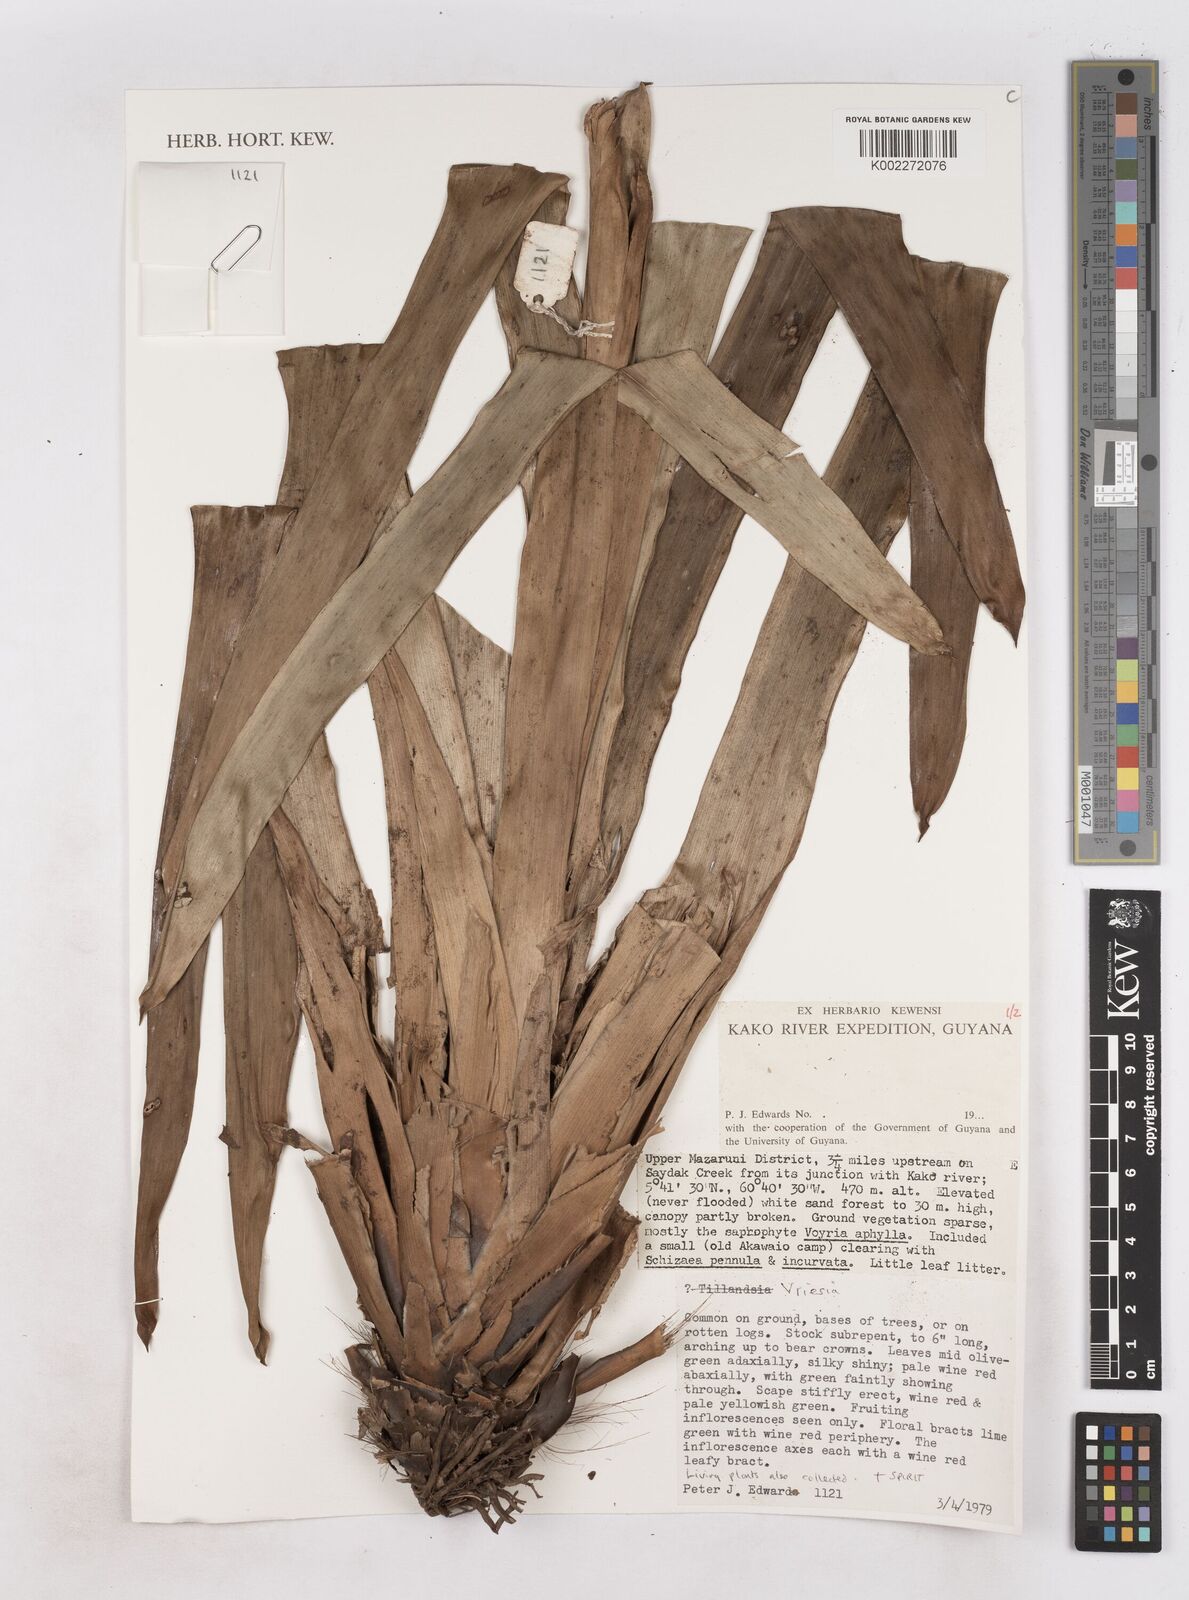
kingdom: Plantae
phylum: Tracheophyta
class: Liliopsida
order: Poales
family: Bromeliaceae
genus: Vriesea
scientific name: Vriesea
